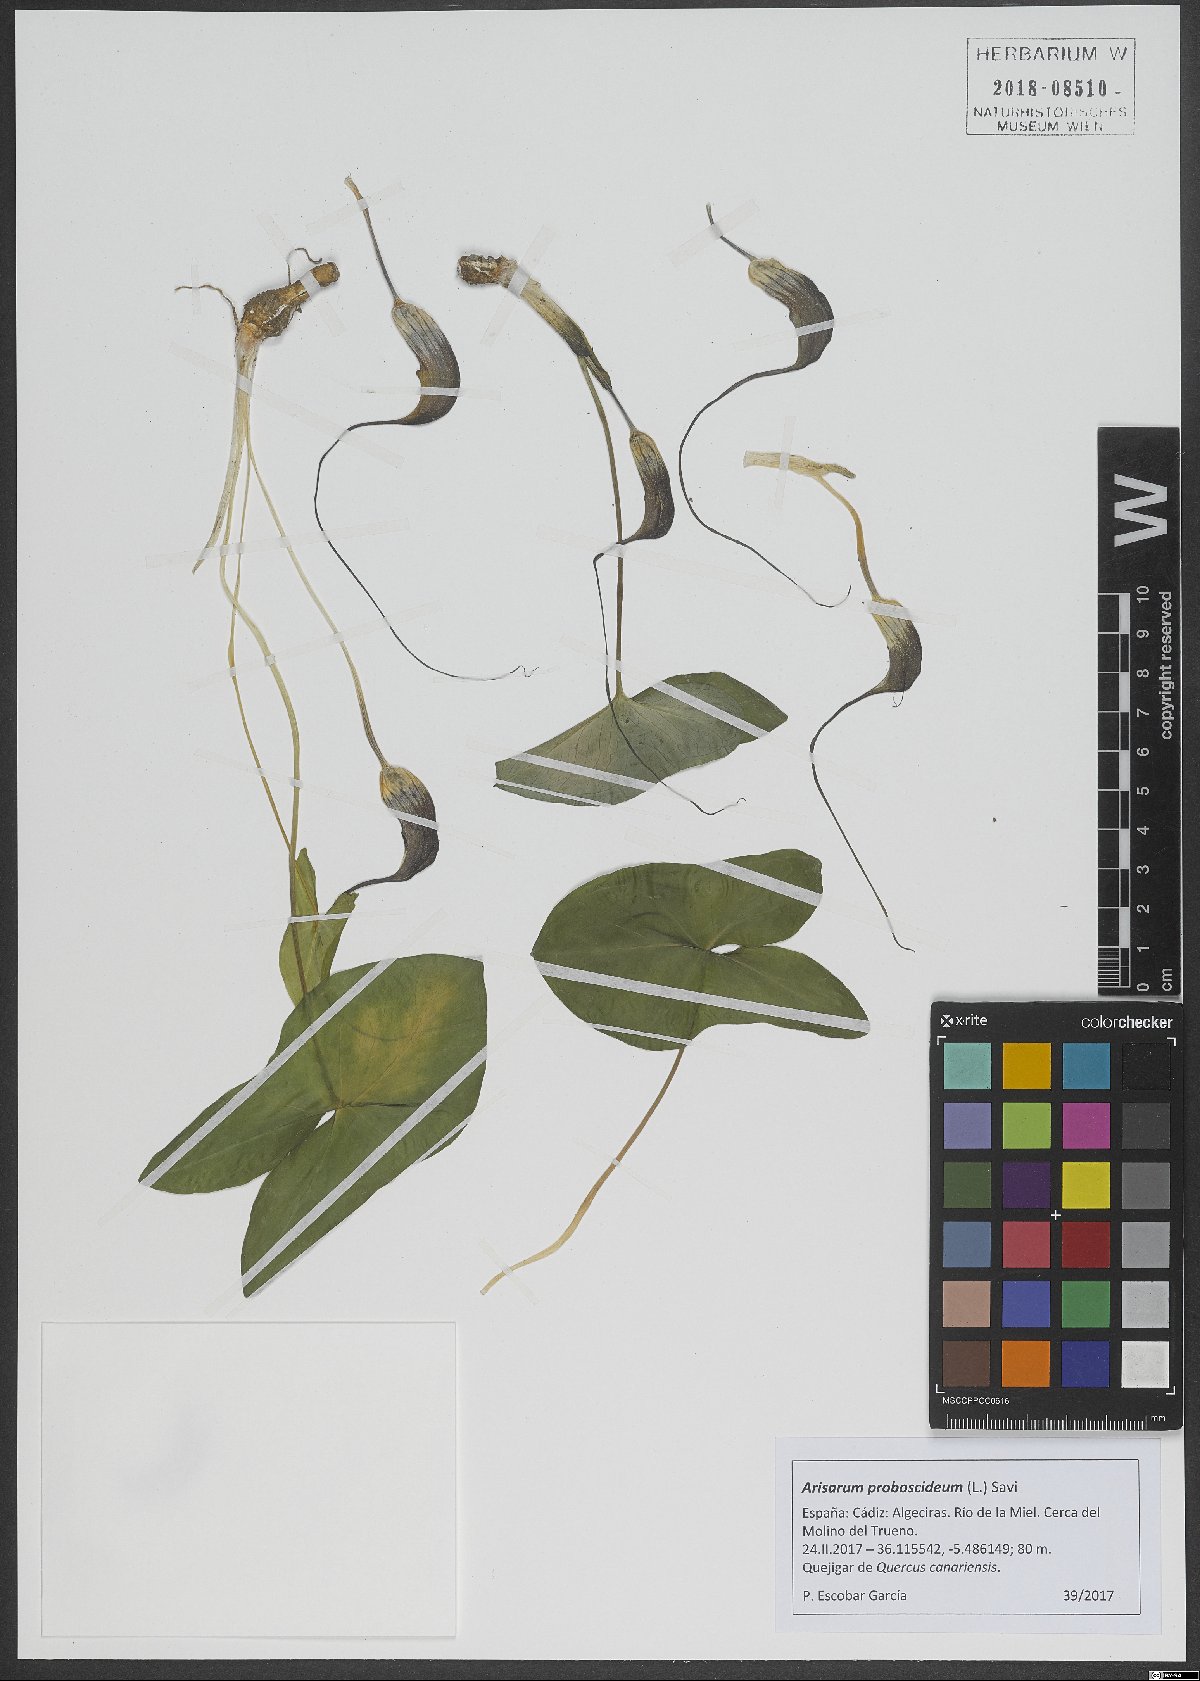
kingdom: Plantae
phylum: Tracheophyta
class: Liliopsida
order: Alismatales
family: Araceae
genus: Arisarum
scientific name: Arisarum proboscideum
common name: Mousetailplant
